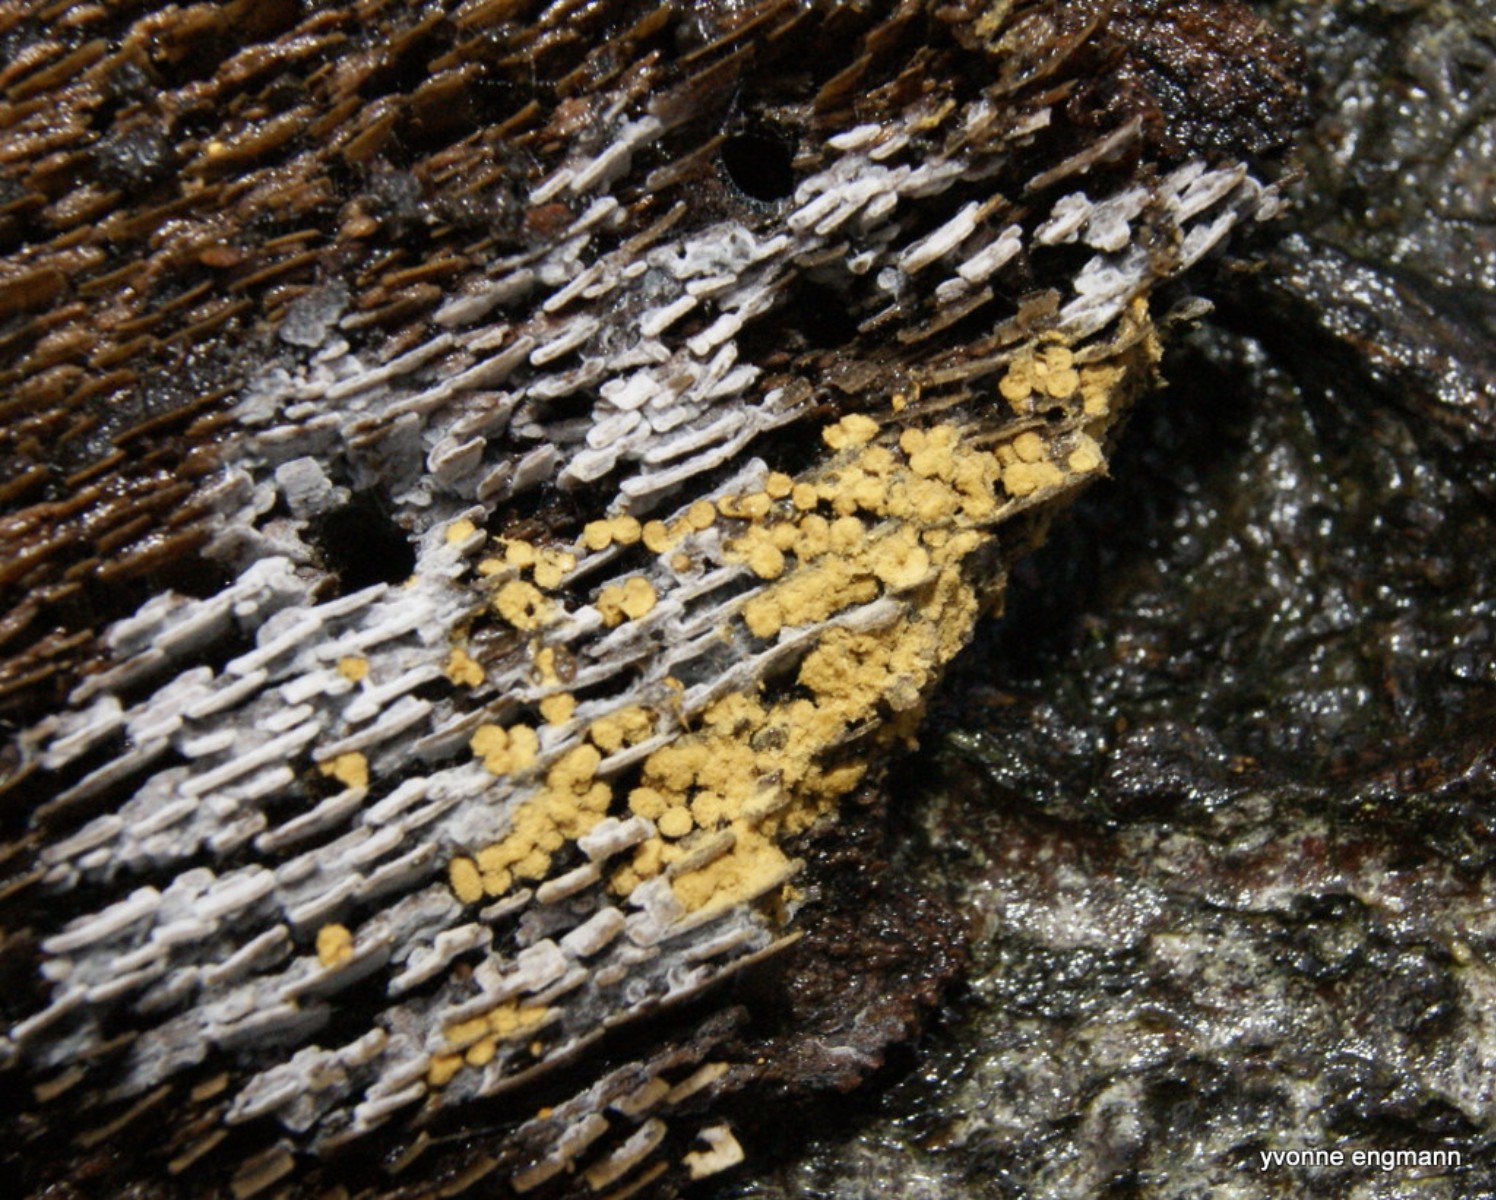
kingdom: Protozoa
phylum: Mycetozoa
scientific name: Mycetozoa
